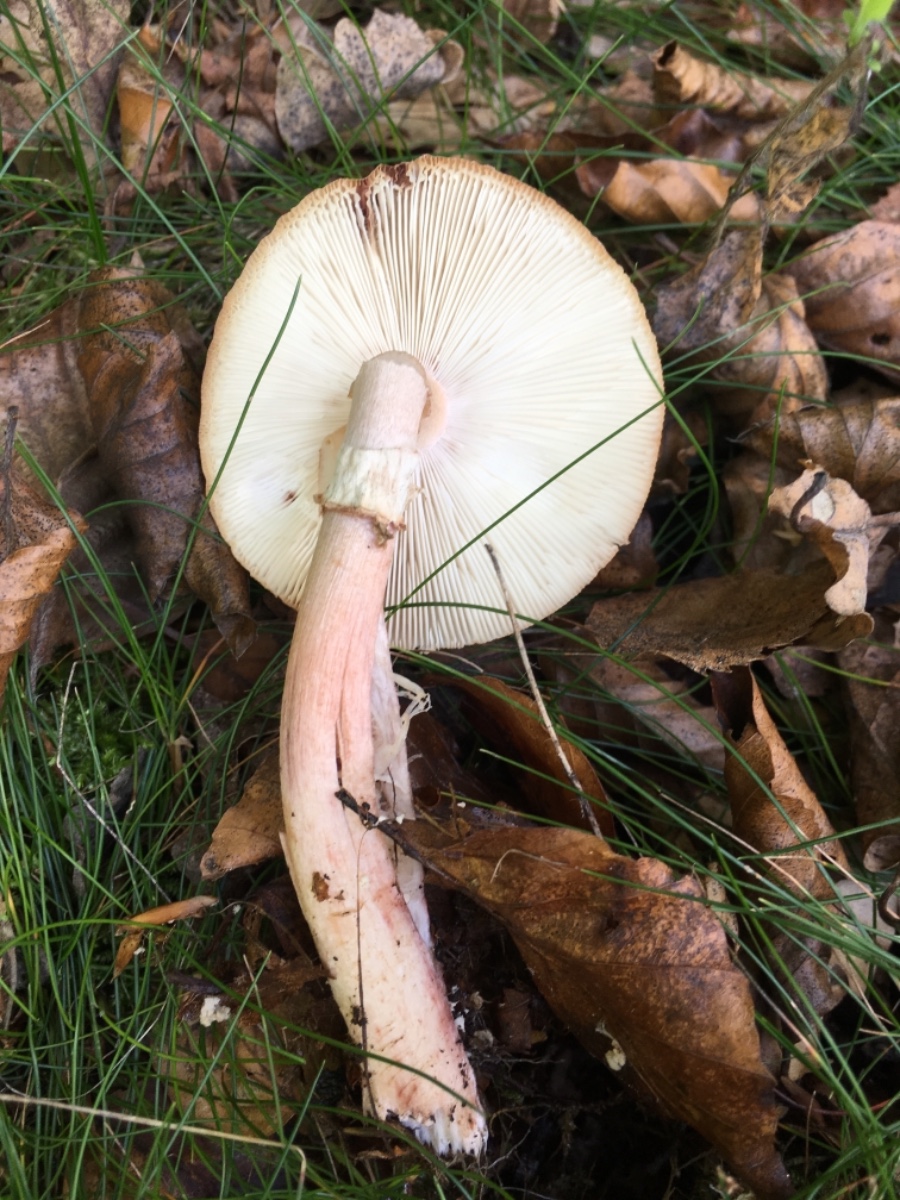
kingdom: Fungi
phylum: Basidiomycota
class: Agaricomycetes
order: Agaricales
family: Amanitaceae
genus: Amanita
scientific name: Amanita rubescens
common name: rødmende fluesvamp
